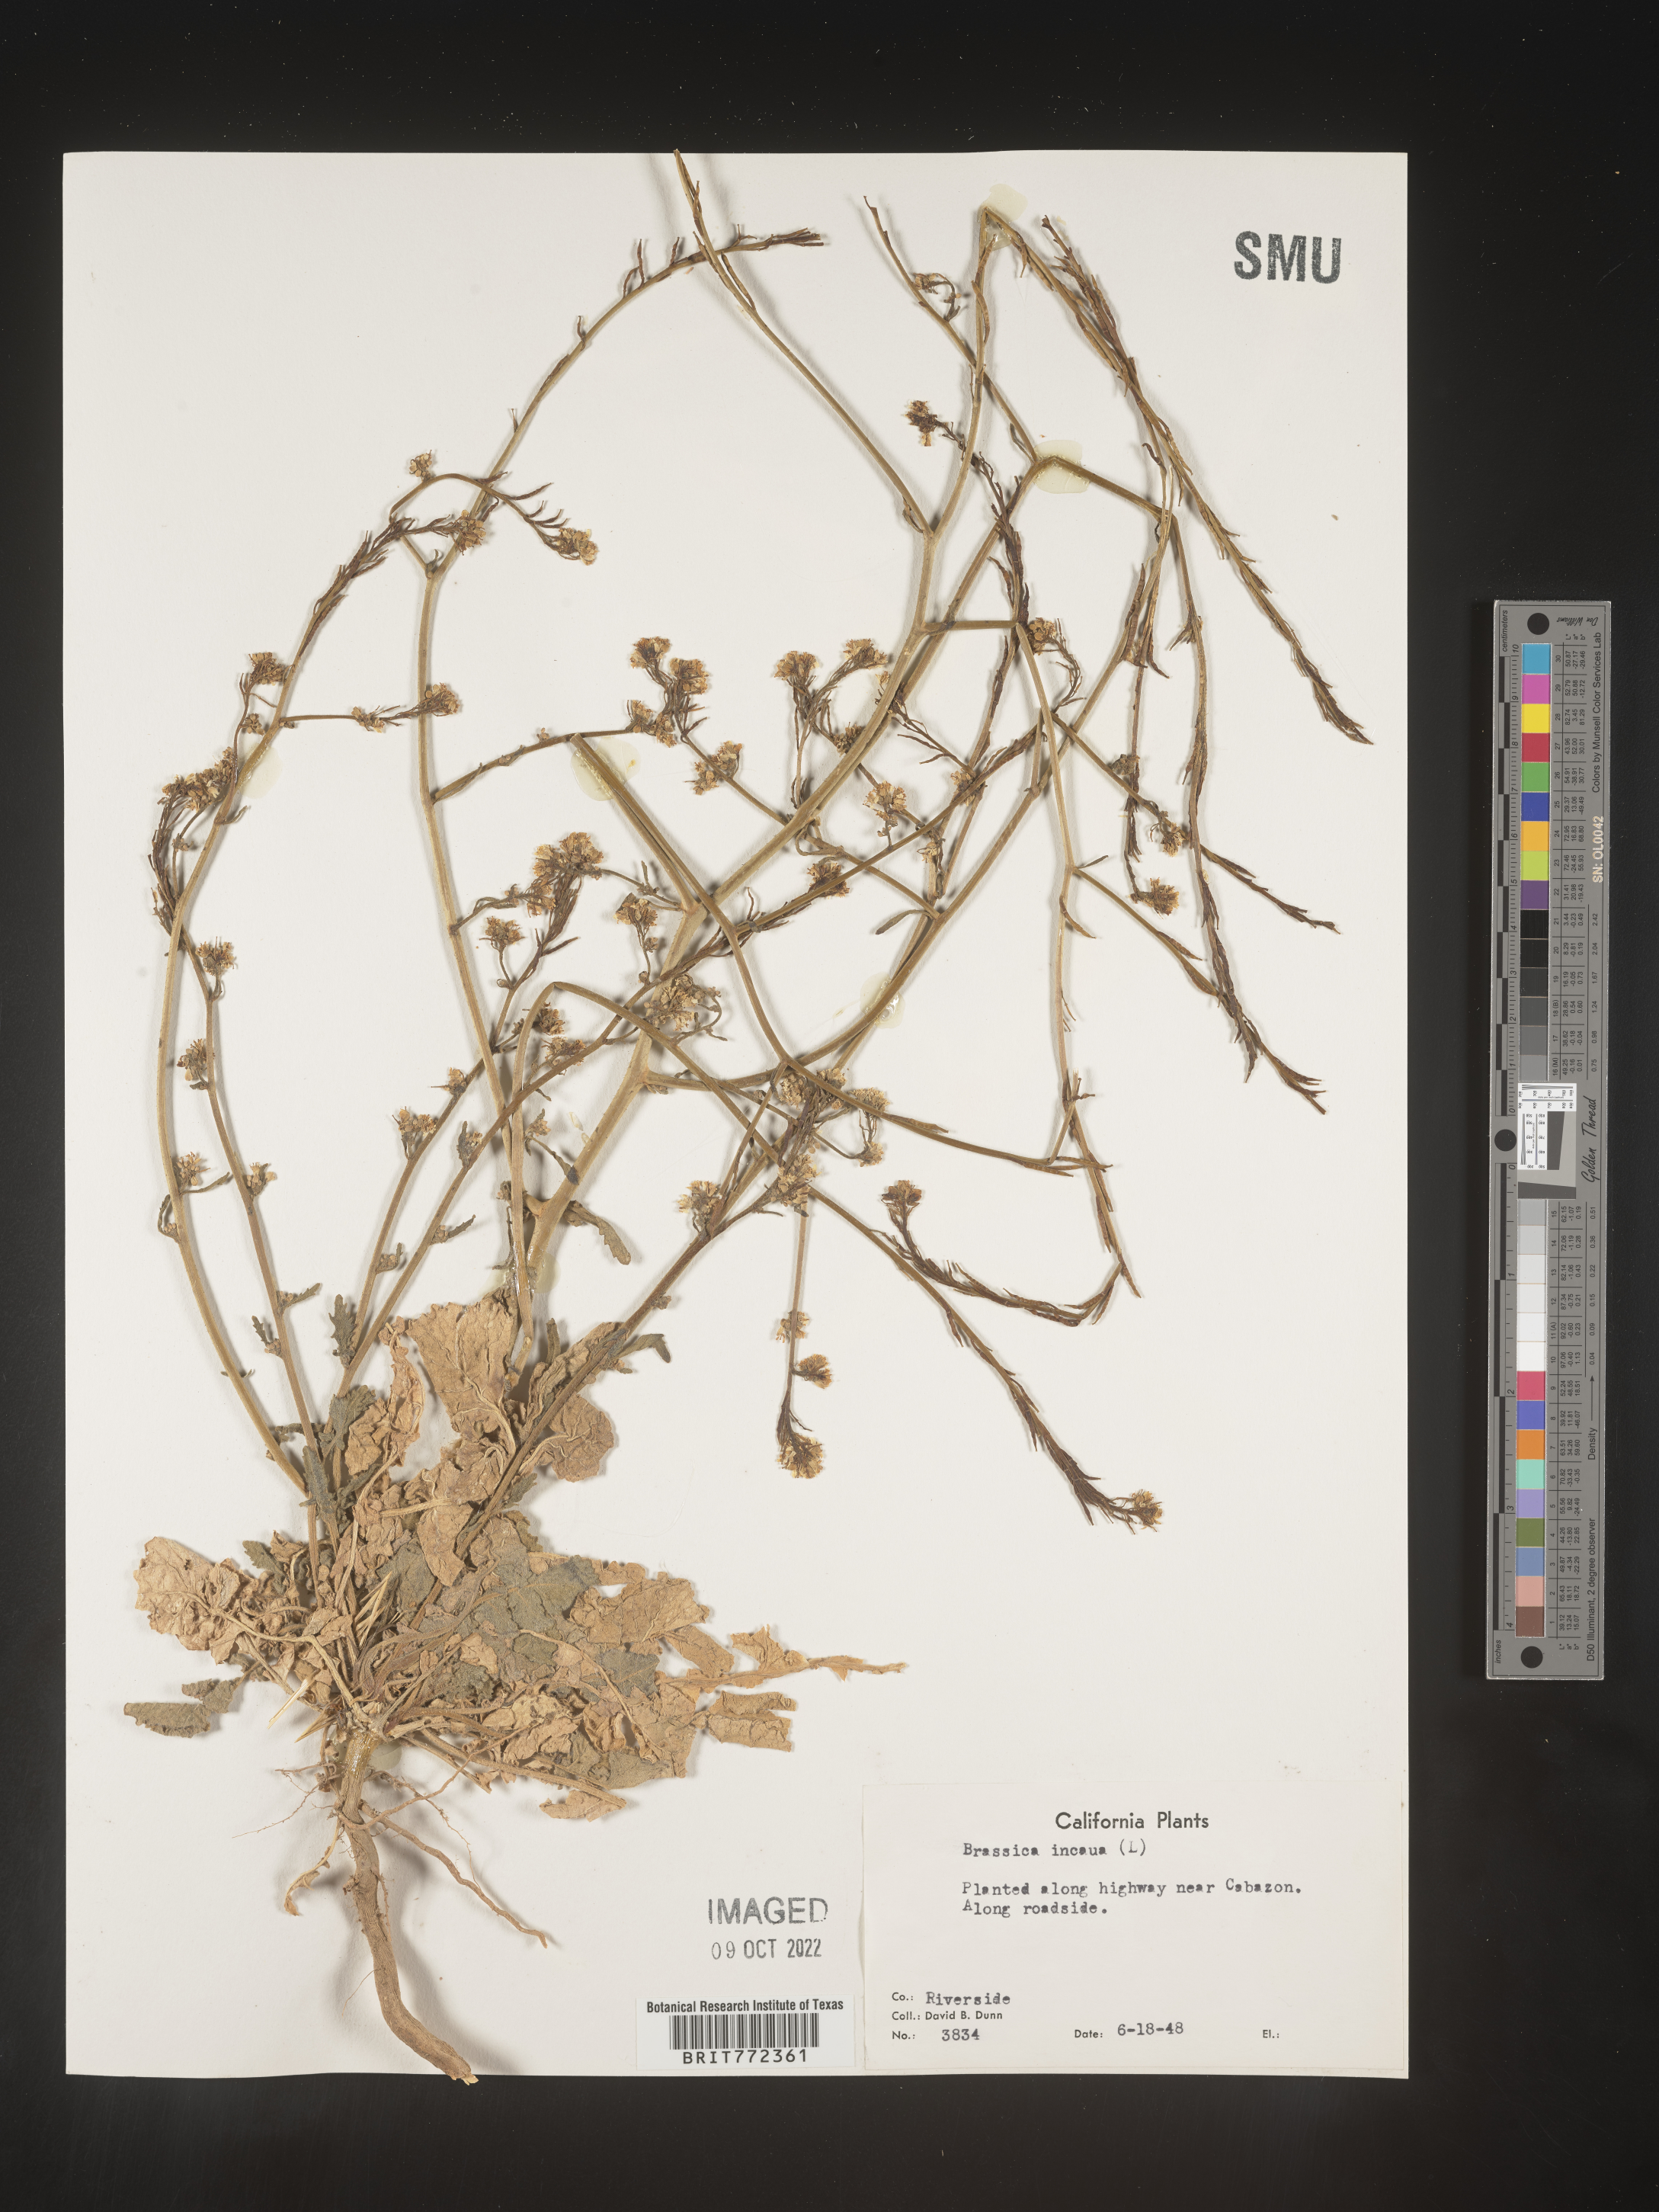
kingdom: Plantae
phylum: Tracheophyta
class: Magnoliopsida
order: Brassicales
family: Brassicaceae
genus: Brassica
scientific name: Brassica
